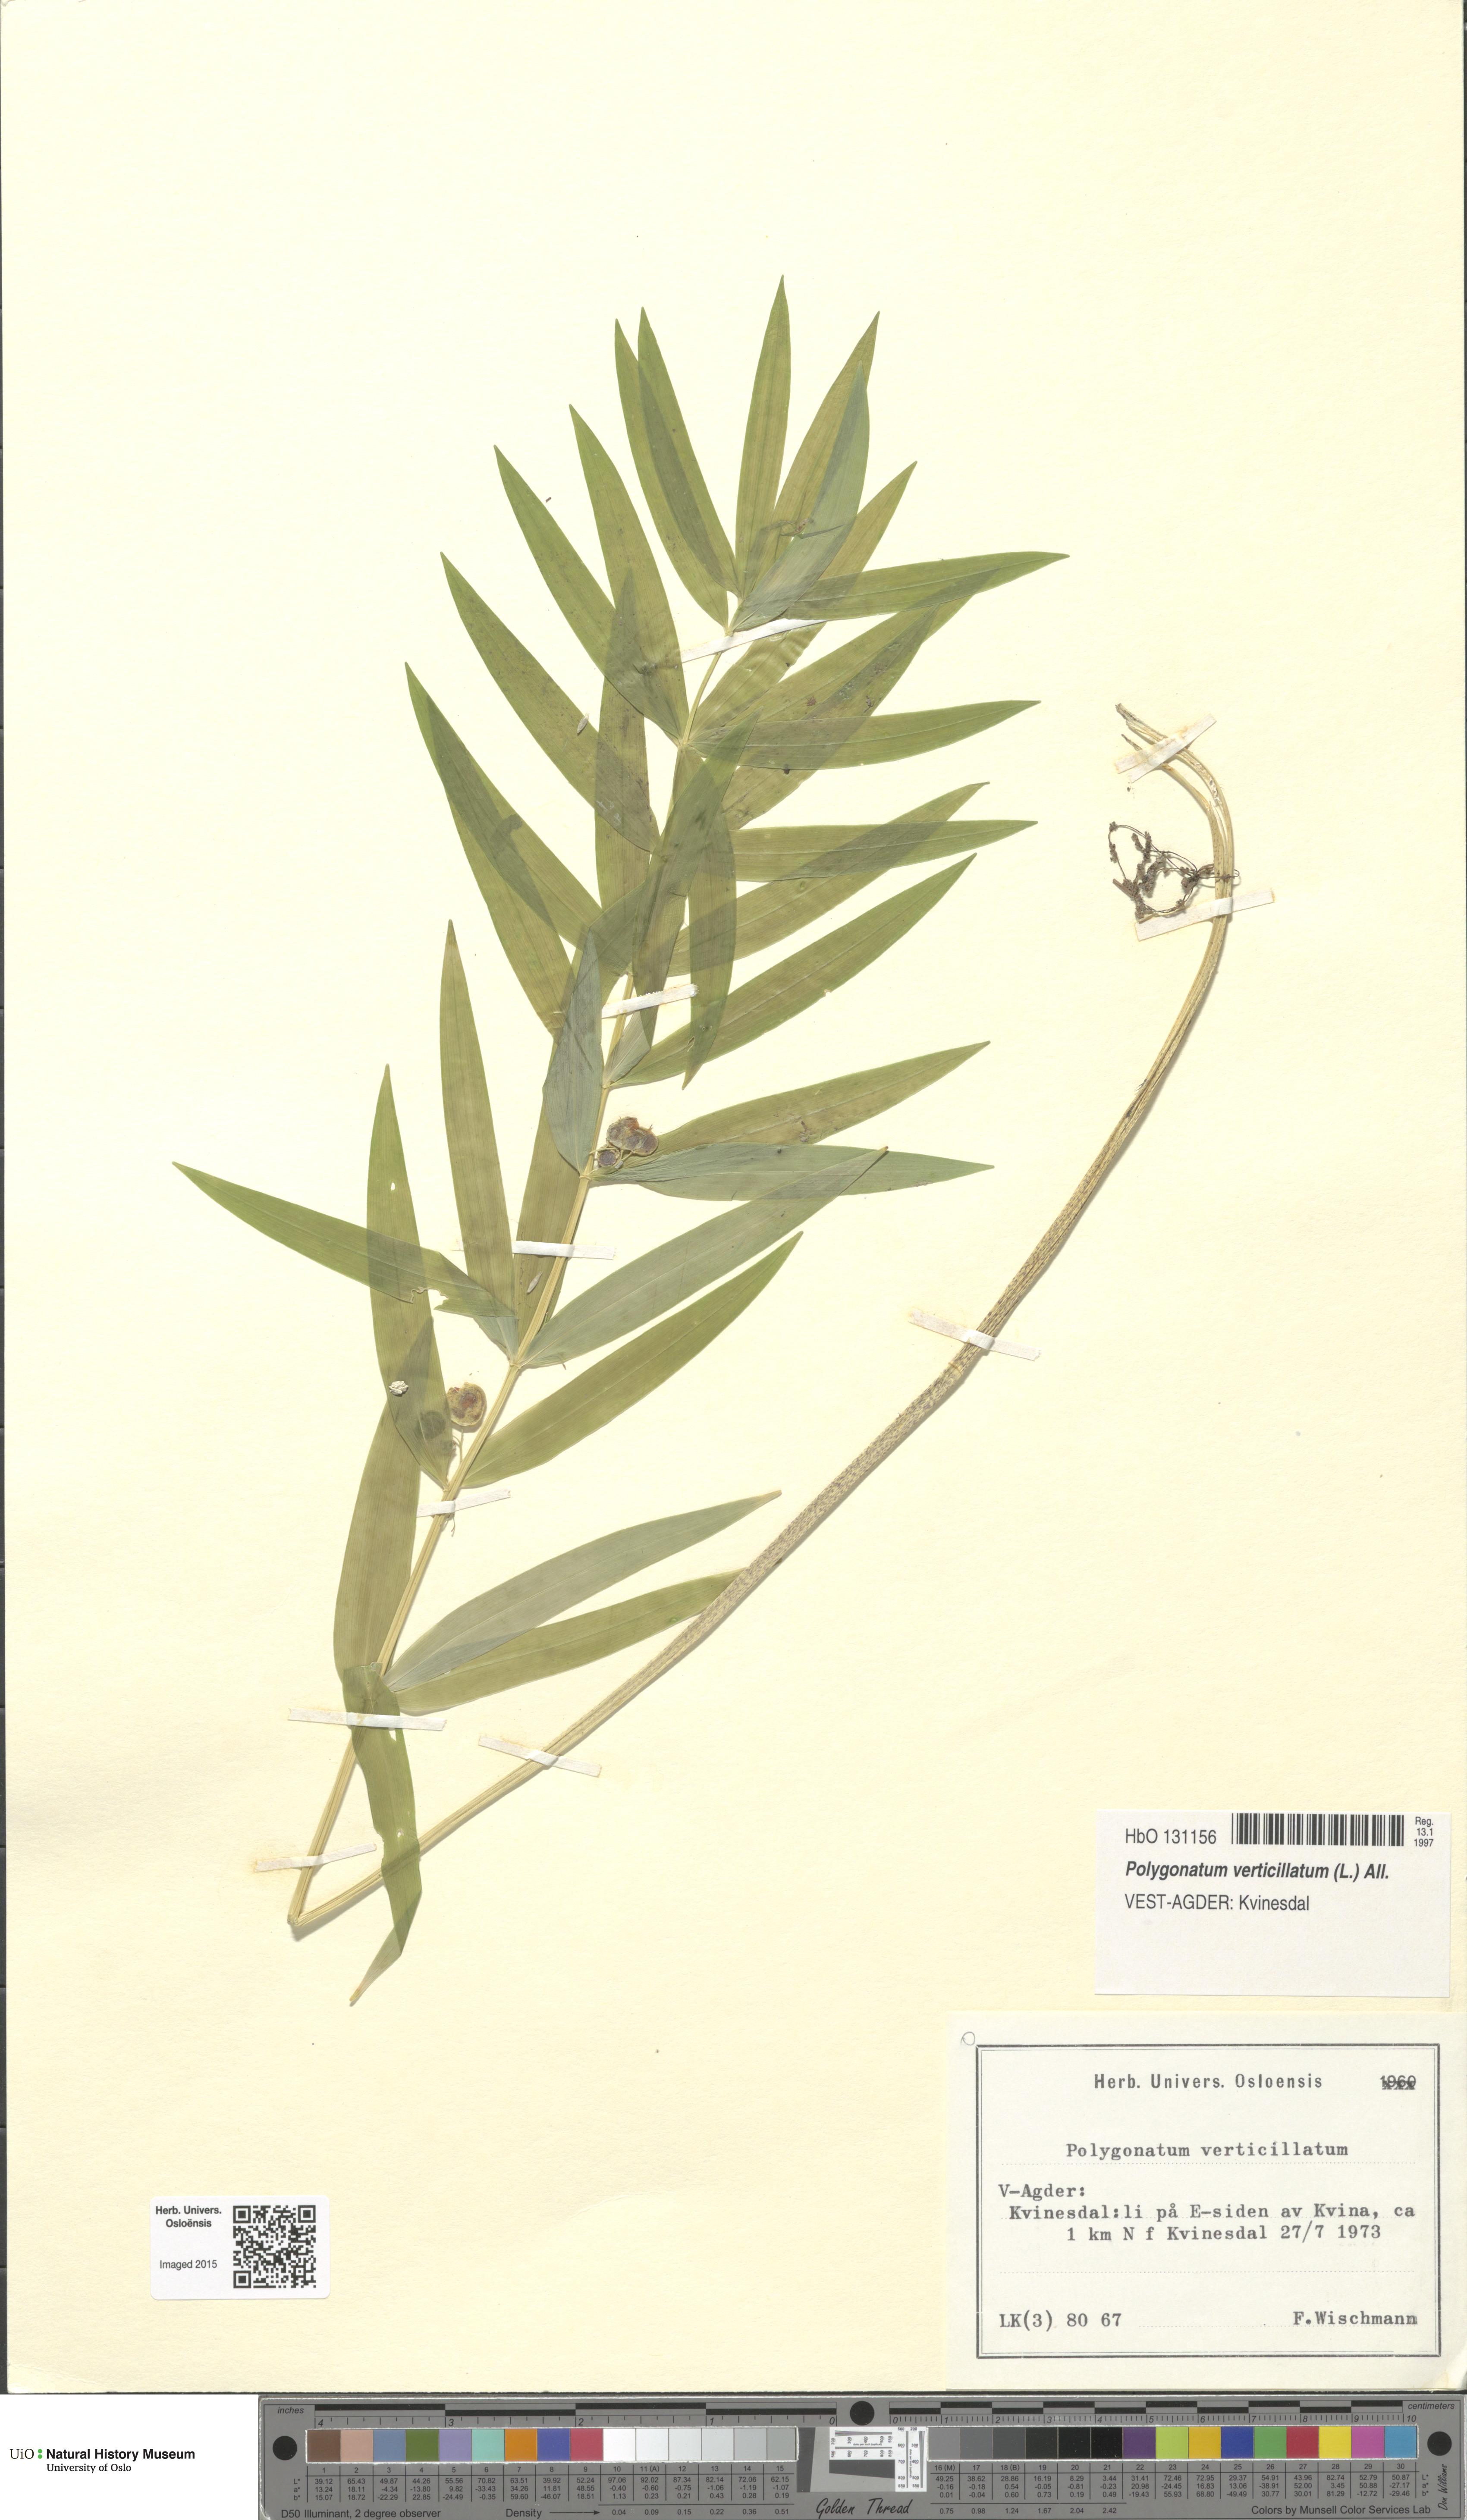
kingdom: Plantae
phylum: Tracheophyta
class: Liliopsida
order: Asparagales
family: Asparagaceae
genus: Polygonatum
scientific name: Polygonatum verticillatum
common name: Whorled solomon's-seal
